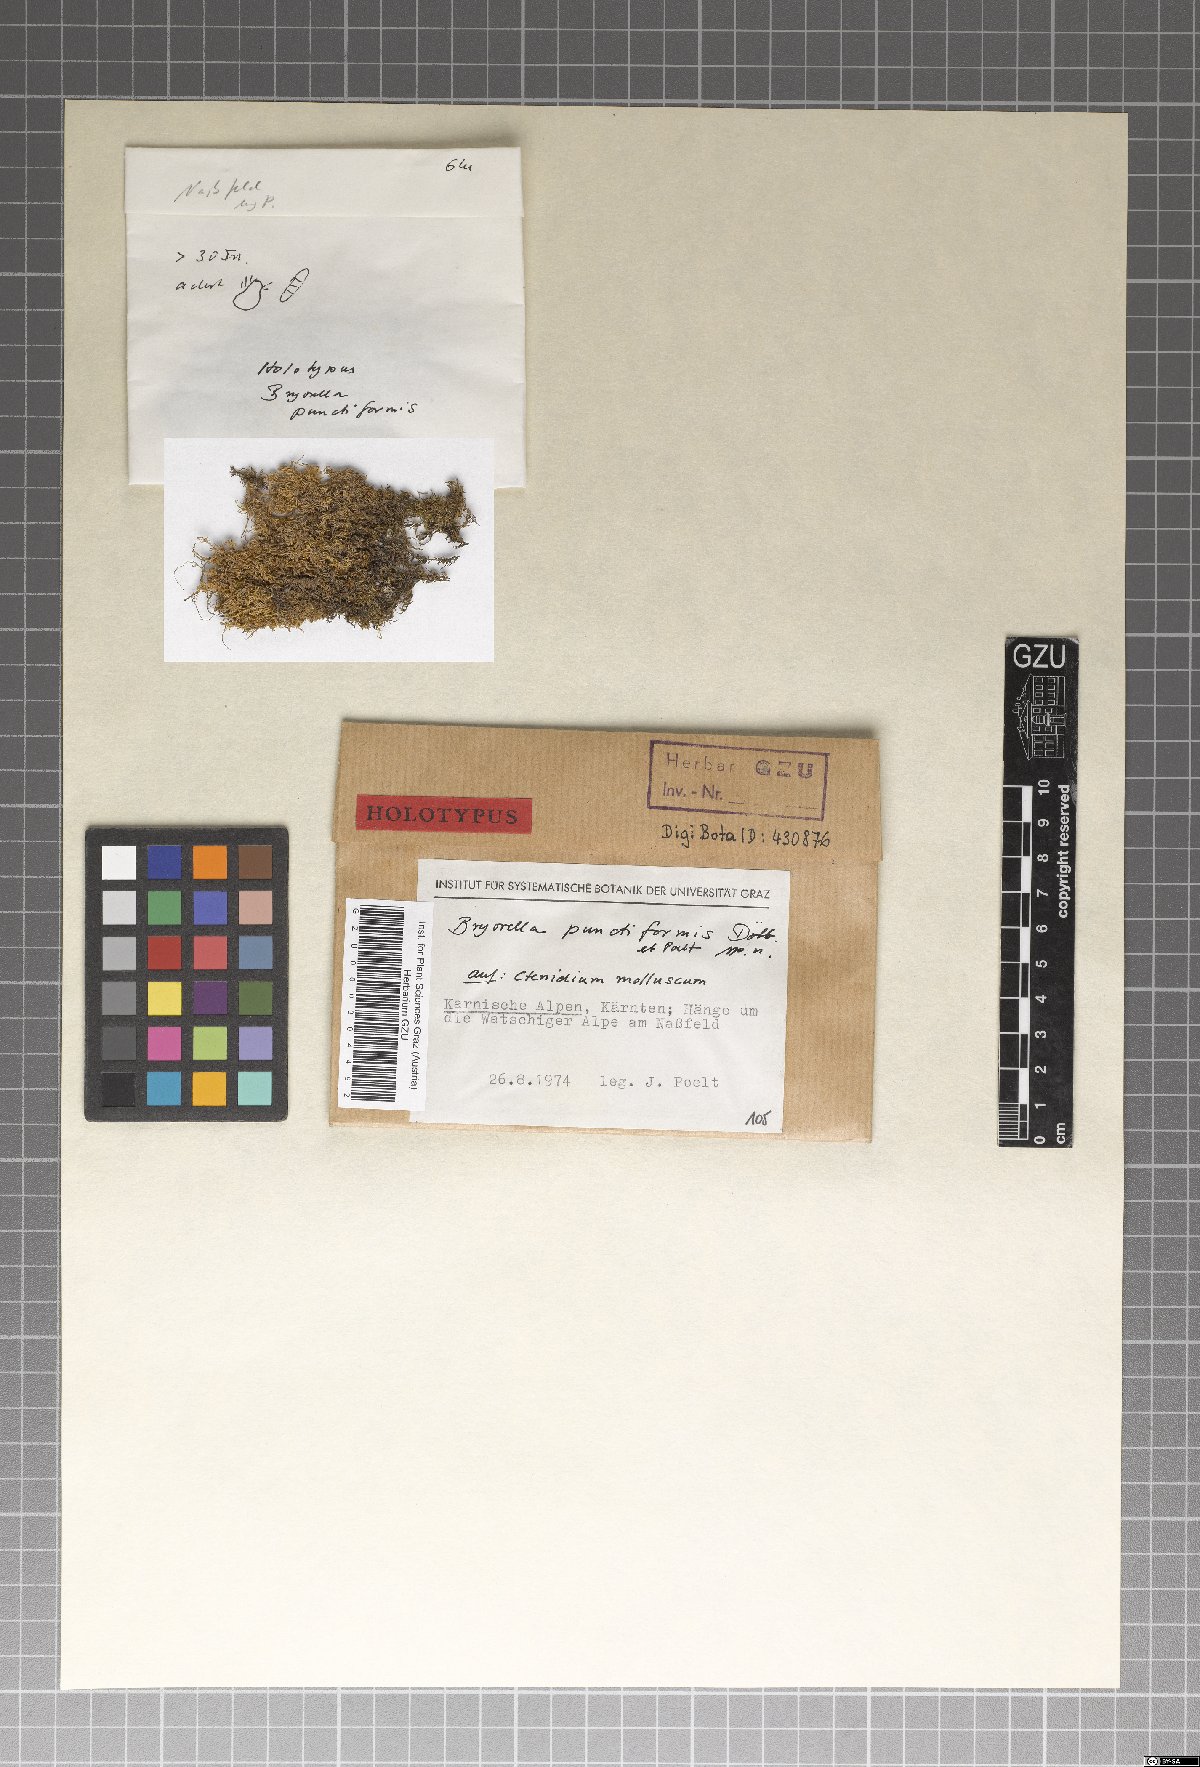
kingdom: Fungi
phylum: Ascomycota
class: Dothideomycetes
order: Dothideales
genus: Bryorella
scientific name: Bryorella punctiformis
